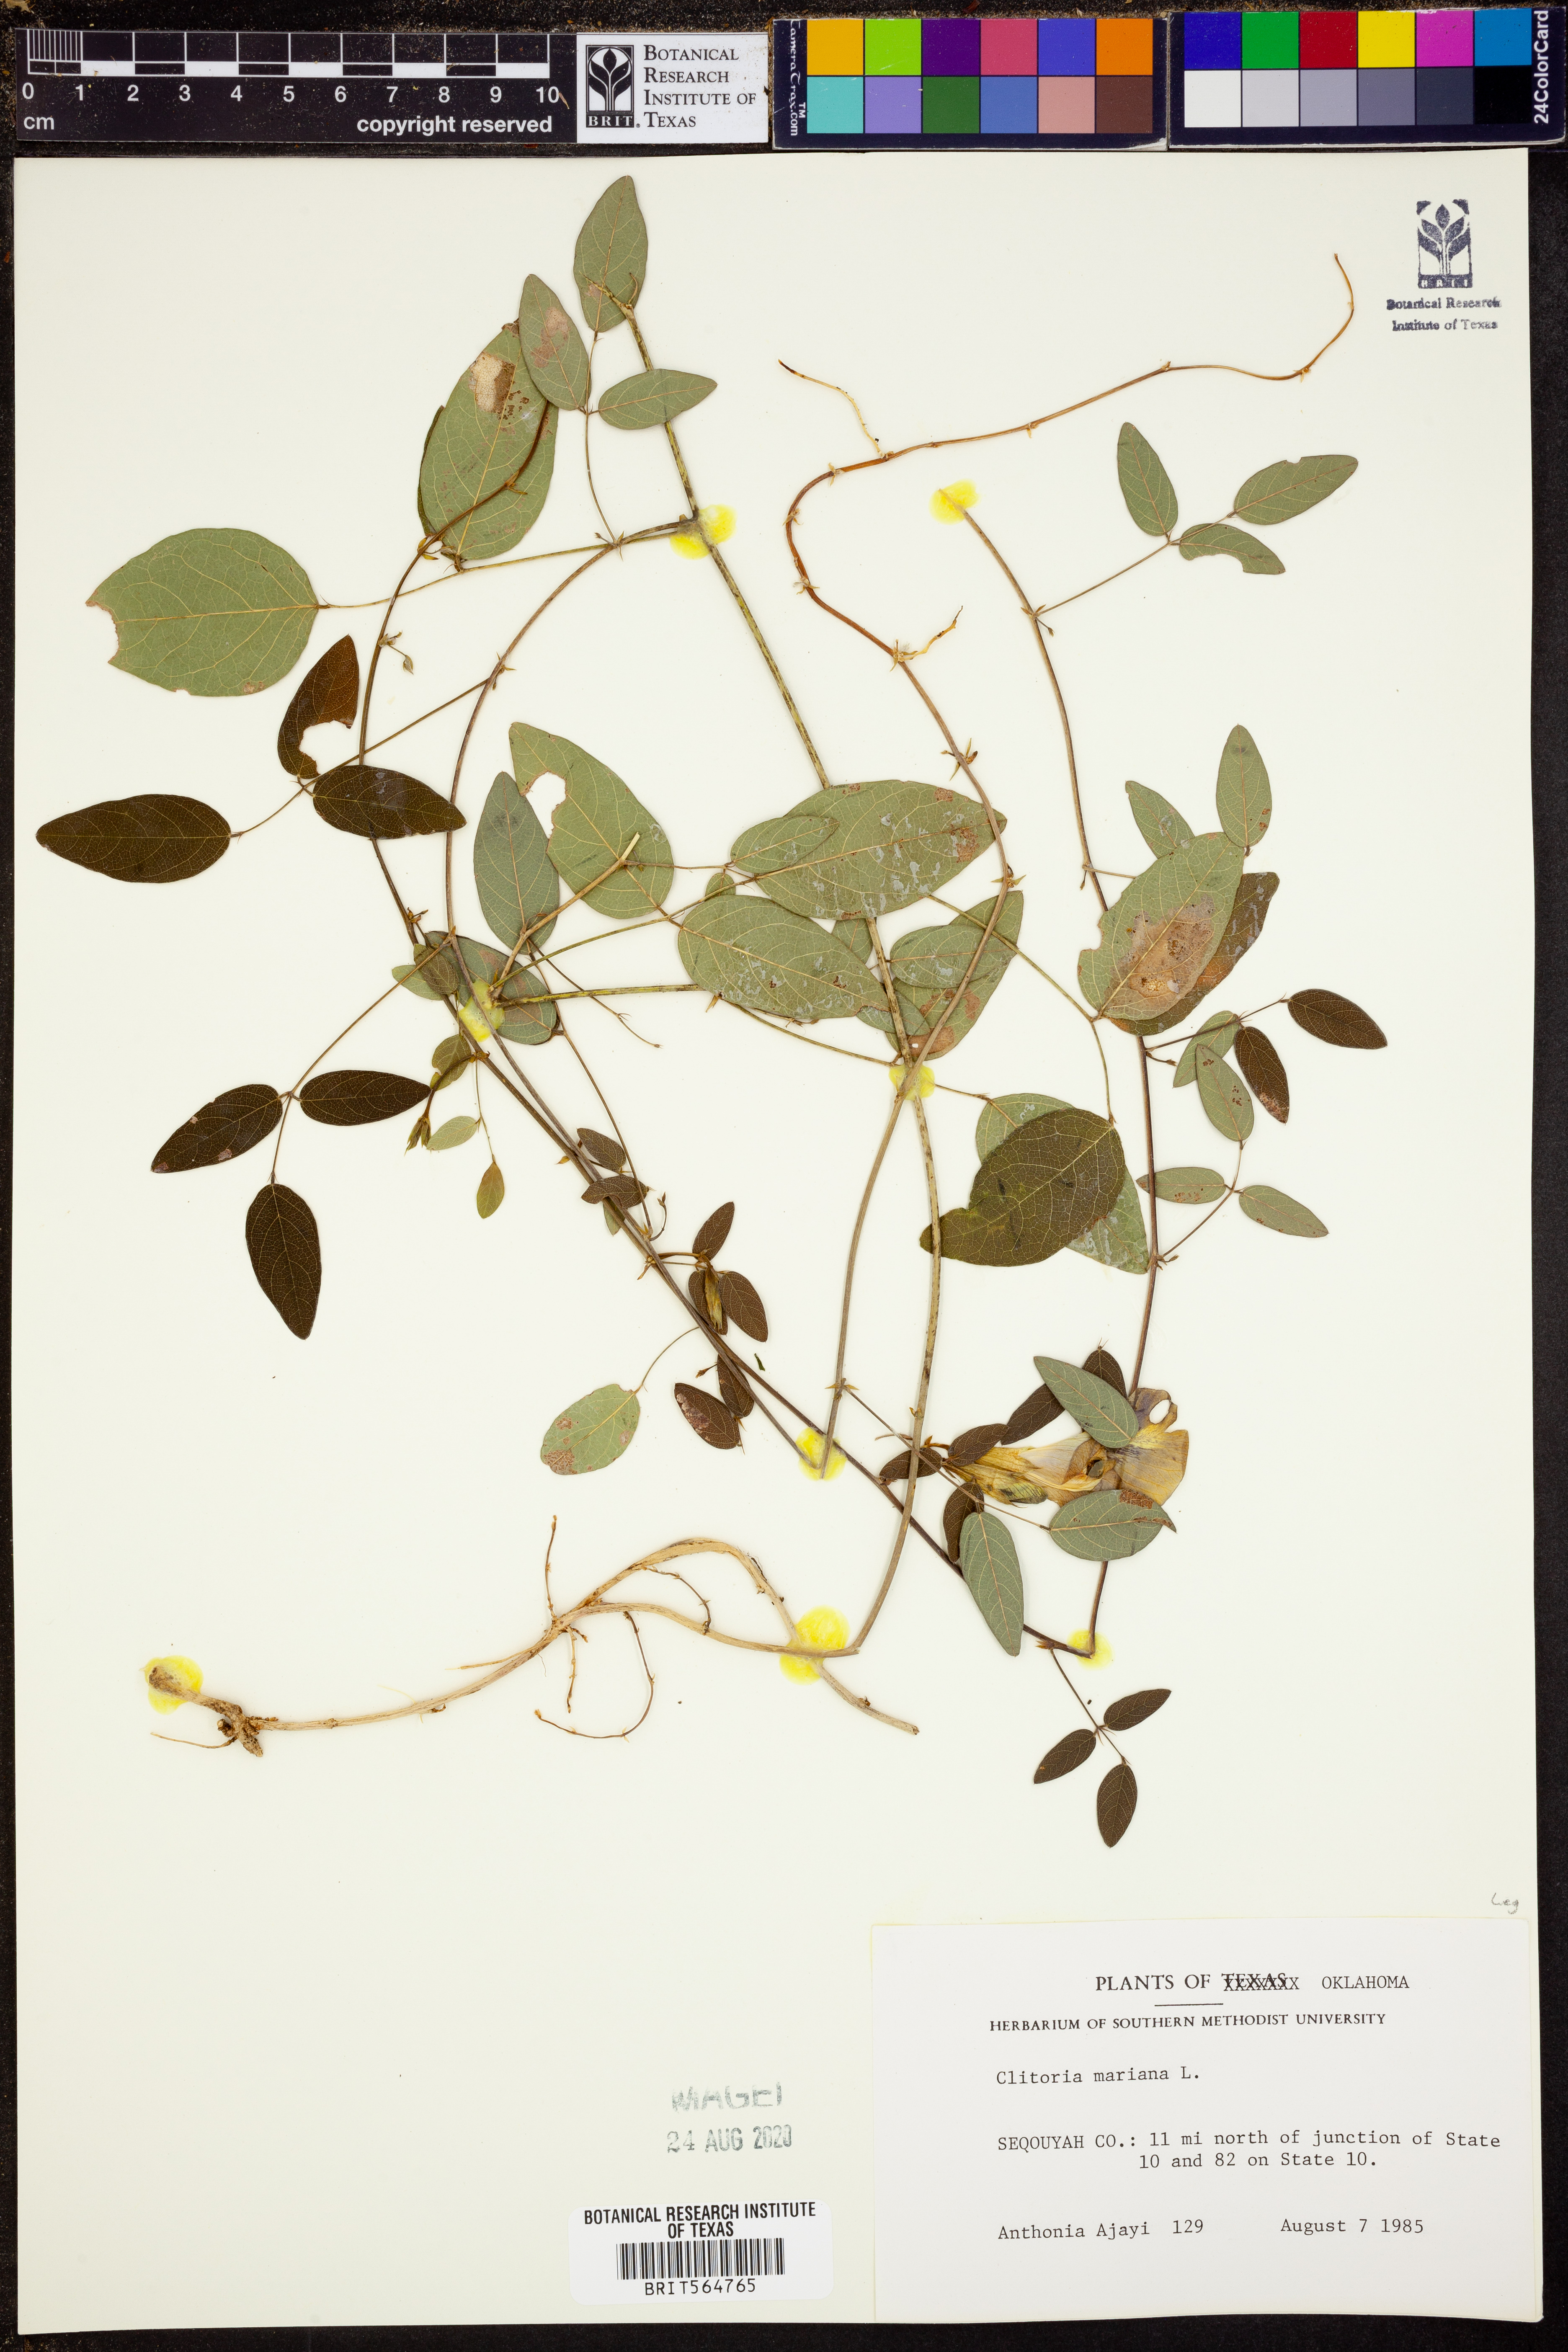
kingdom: Plantae
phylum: Tracheophyta
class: Magnoliopsida
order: Fabales
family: Fabaceae
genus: Clitoria
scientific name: Clitoria mariana
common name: Butterfly-pea
